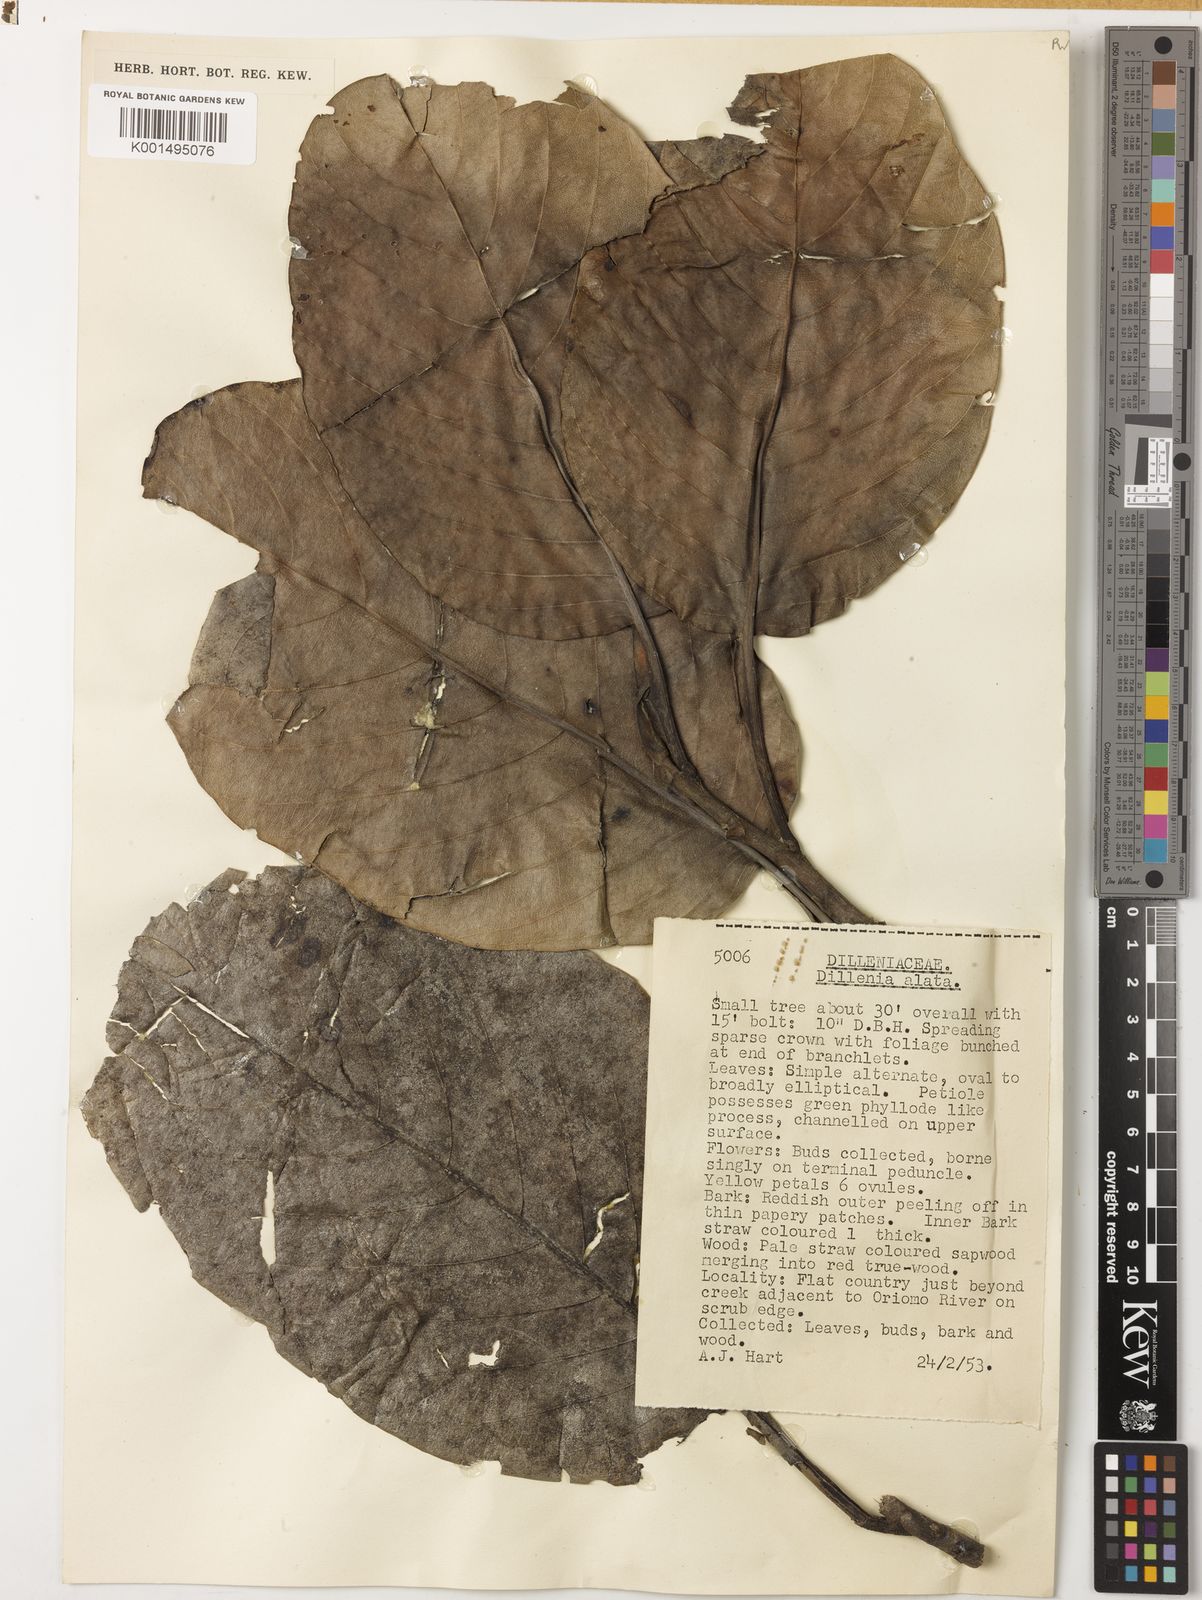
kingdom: Plantae
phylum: Tracheophyta
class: Magnoliopsida
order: Dilleniales
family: Dilleniaceae
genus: Dillenia
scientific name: Dillenia alata
